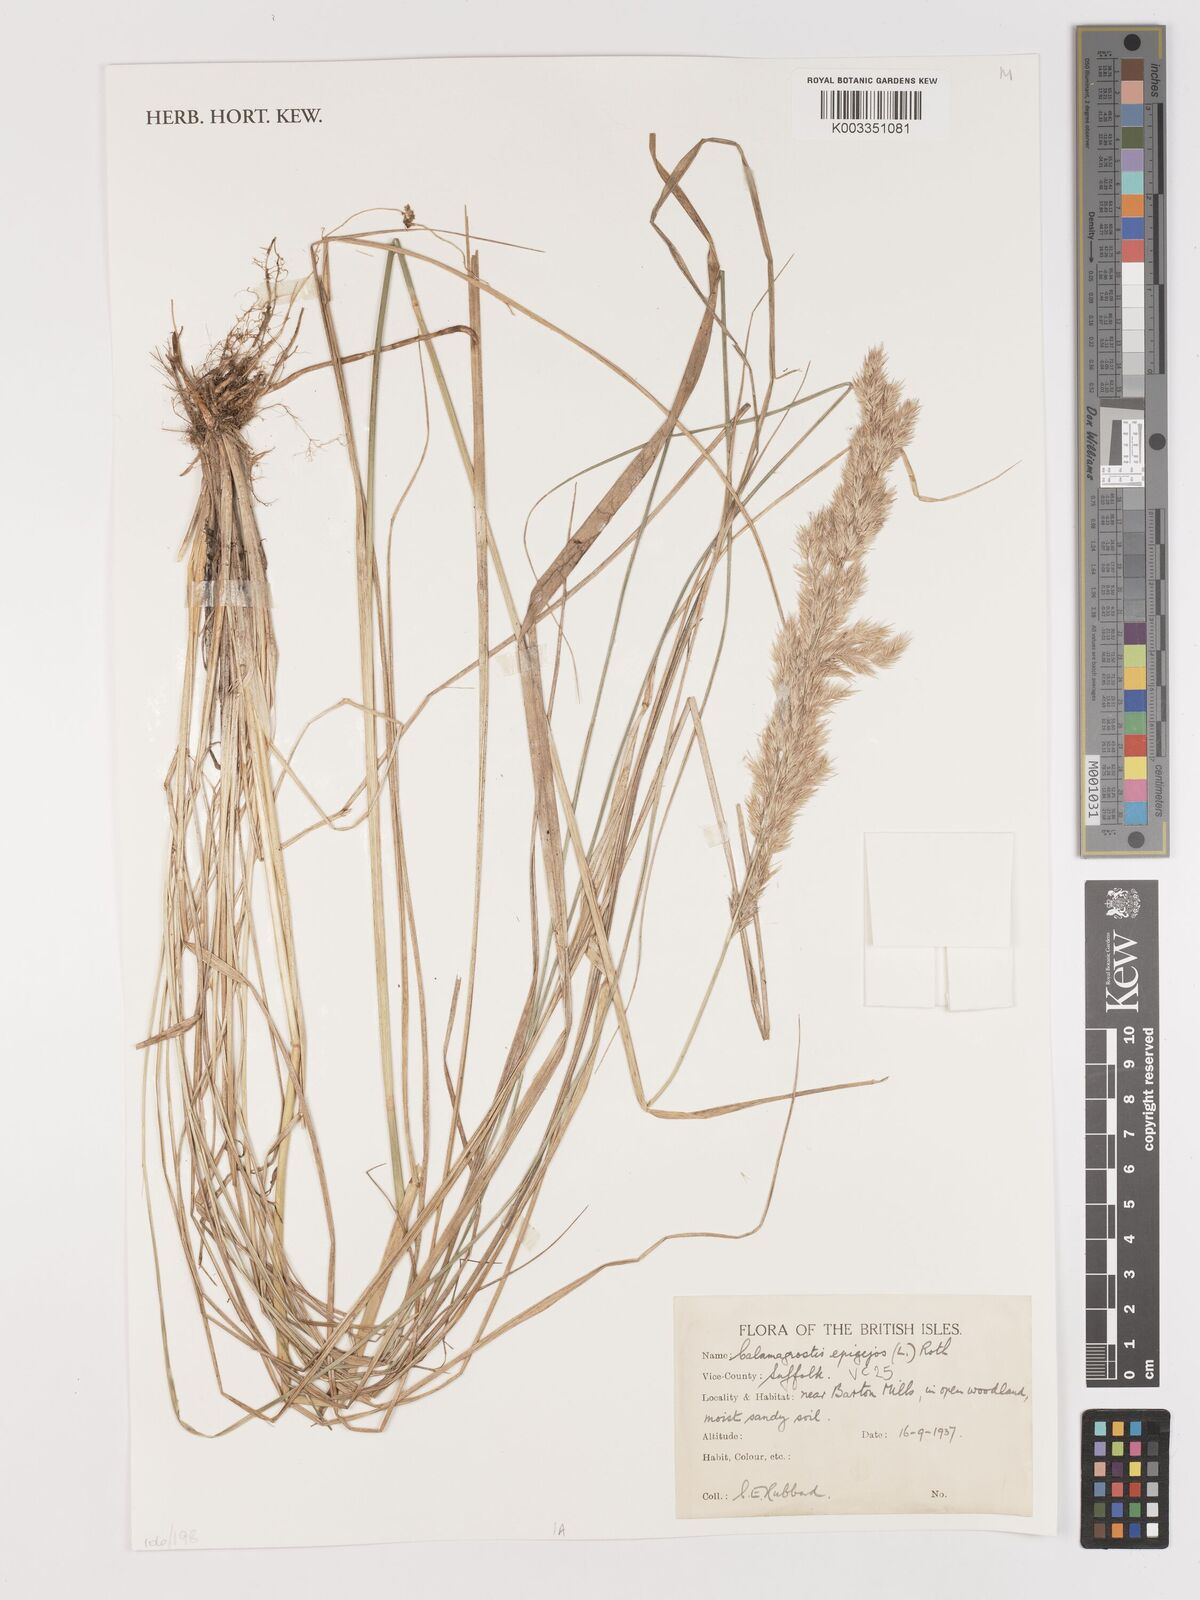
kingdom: Plantae
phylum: Tracheophyta
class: Liliopsida
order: Poales
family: Poaceae
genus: Calamagrostis
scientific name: Calamagrostis
